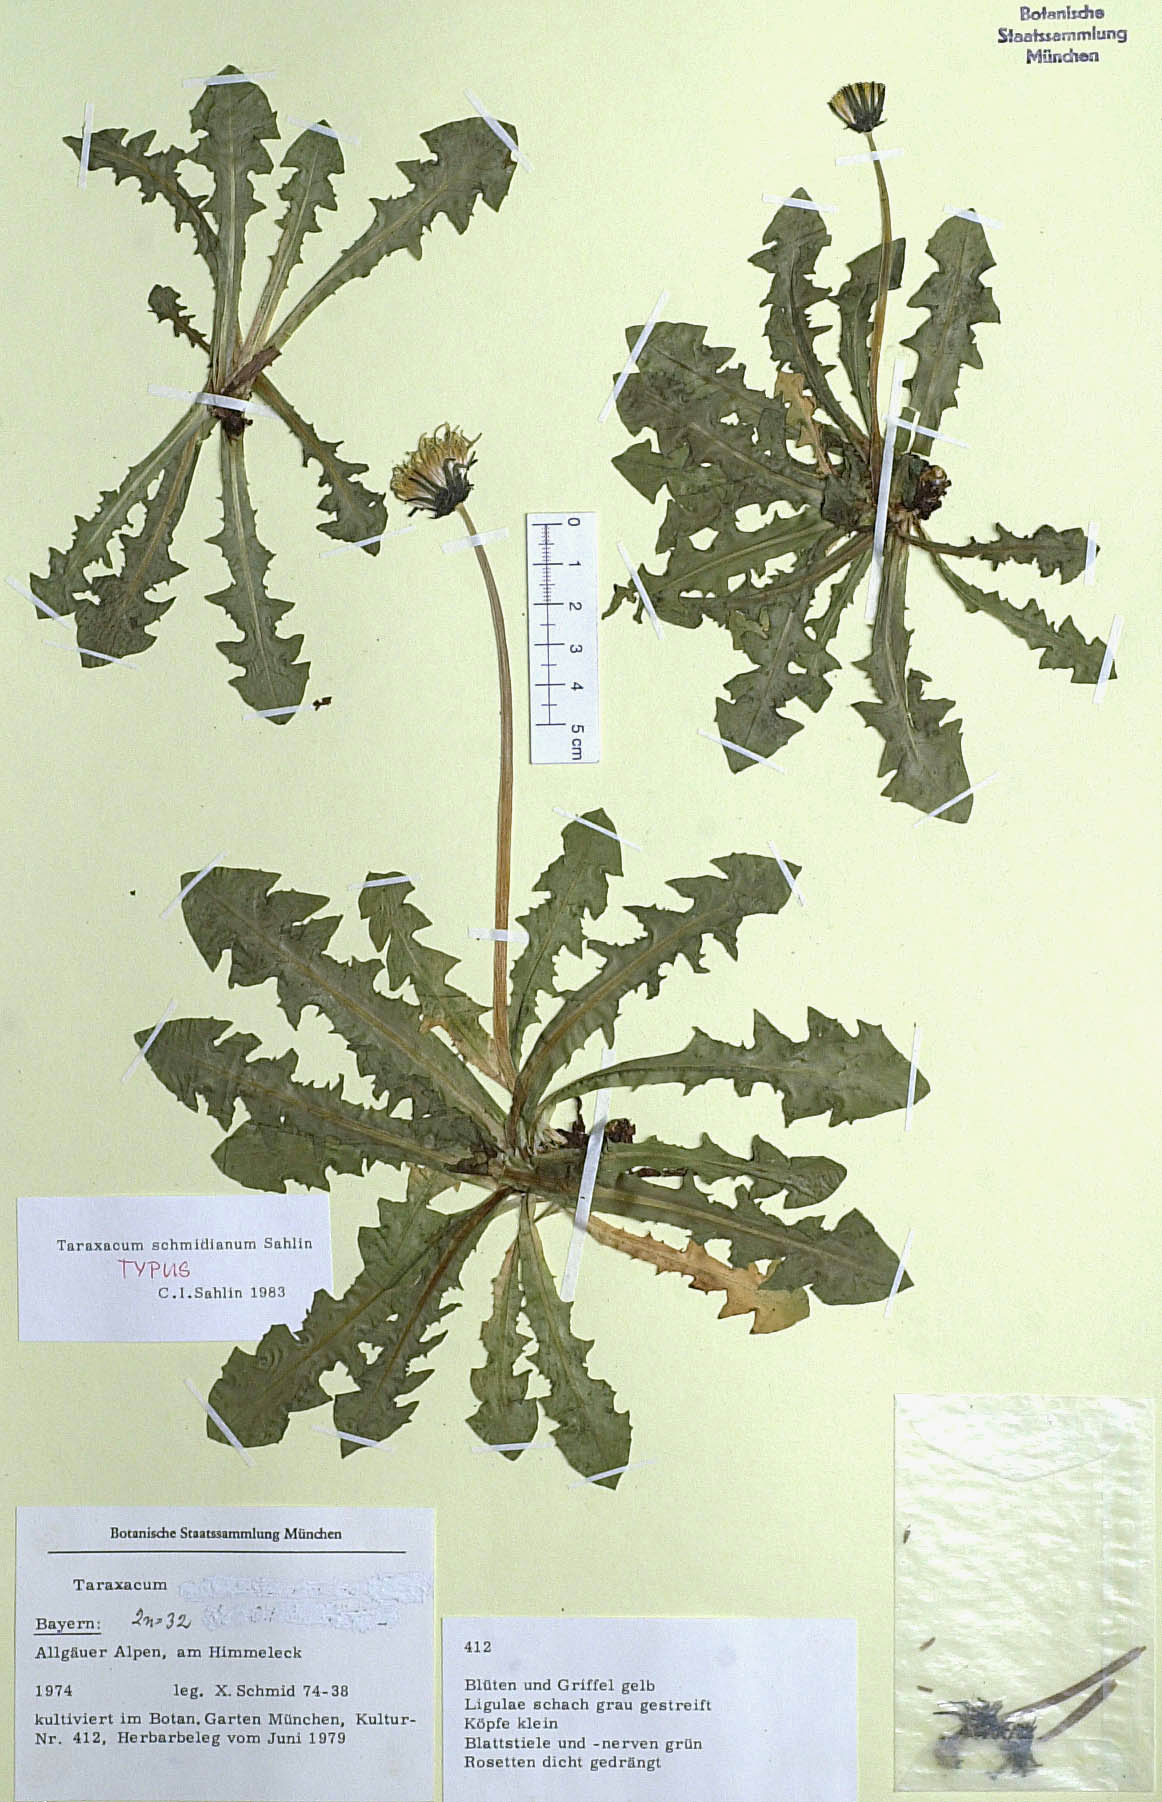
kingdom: Plantae
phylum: Tracheophyta
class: Magnoliopsida
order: Asterales
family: Asteraceae
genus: Taraxacum
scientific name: Taraxacum schmidianum
